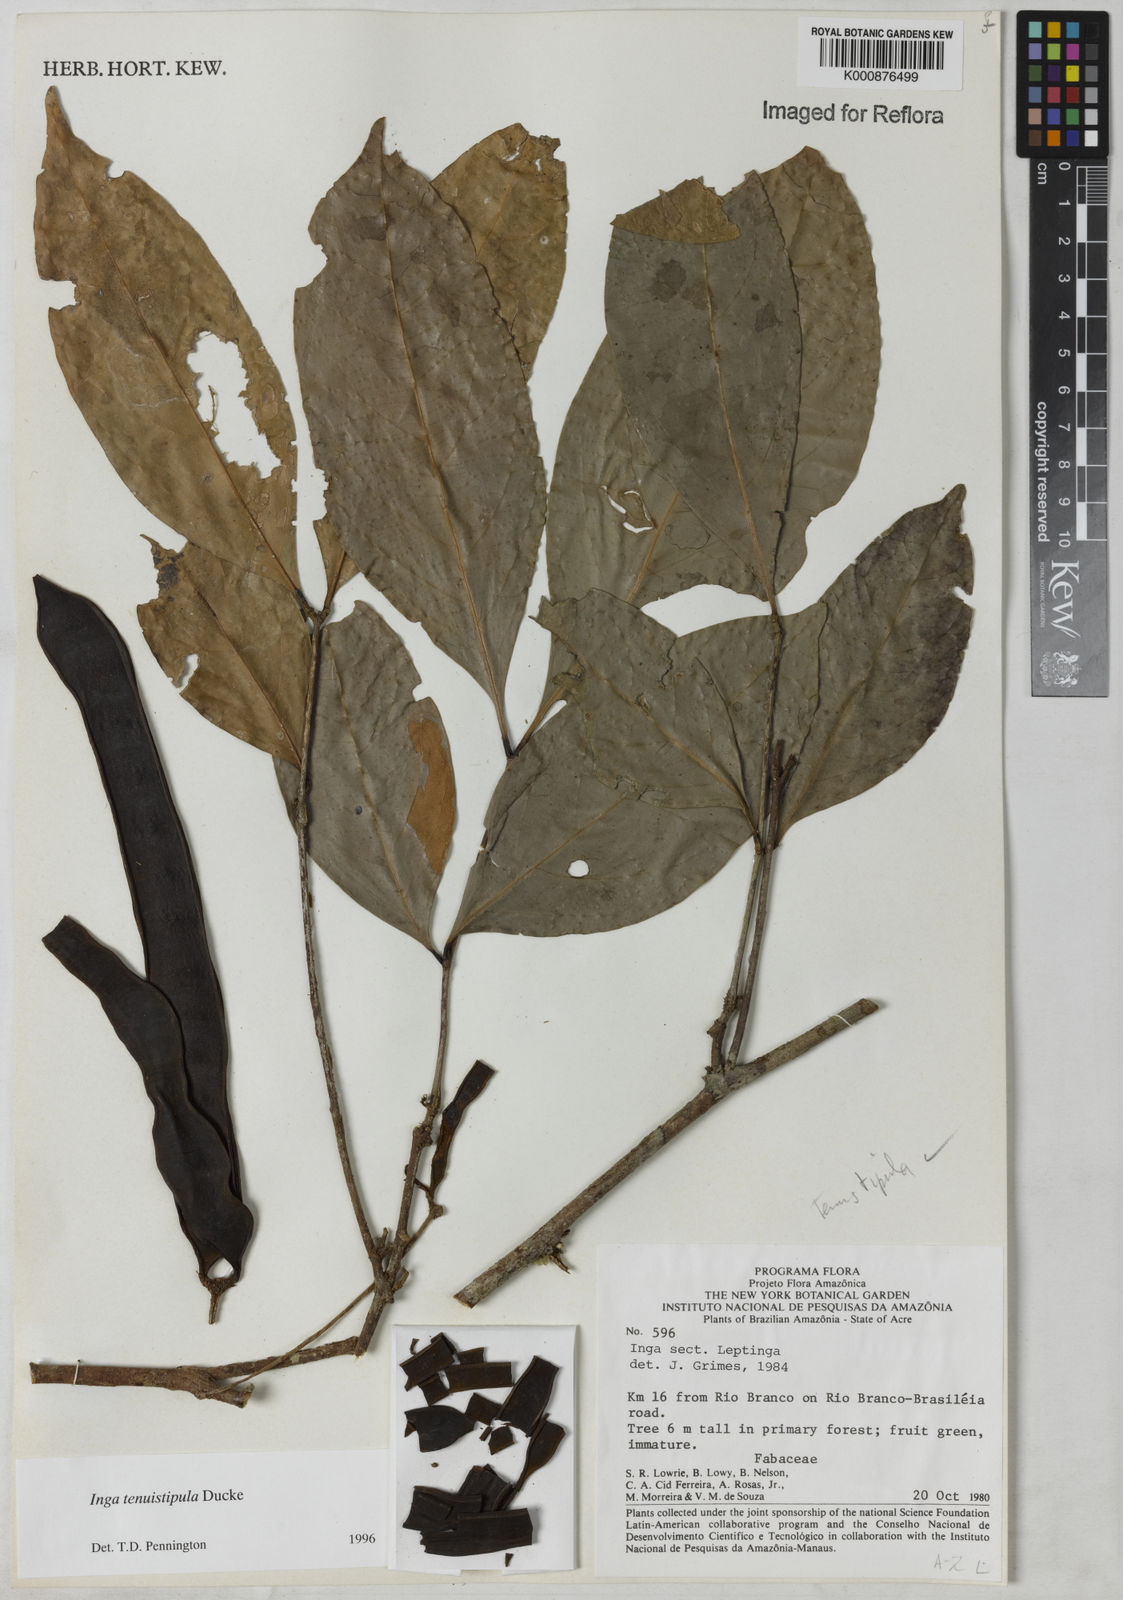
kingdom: Plantae
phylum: Tracheophyta
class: Magnoliopsida
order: Fabales
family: Fabaceae
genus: Inga
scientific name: Inga tenuistipula
